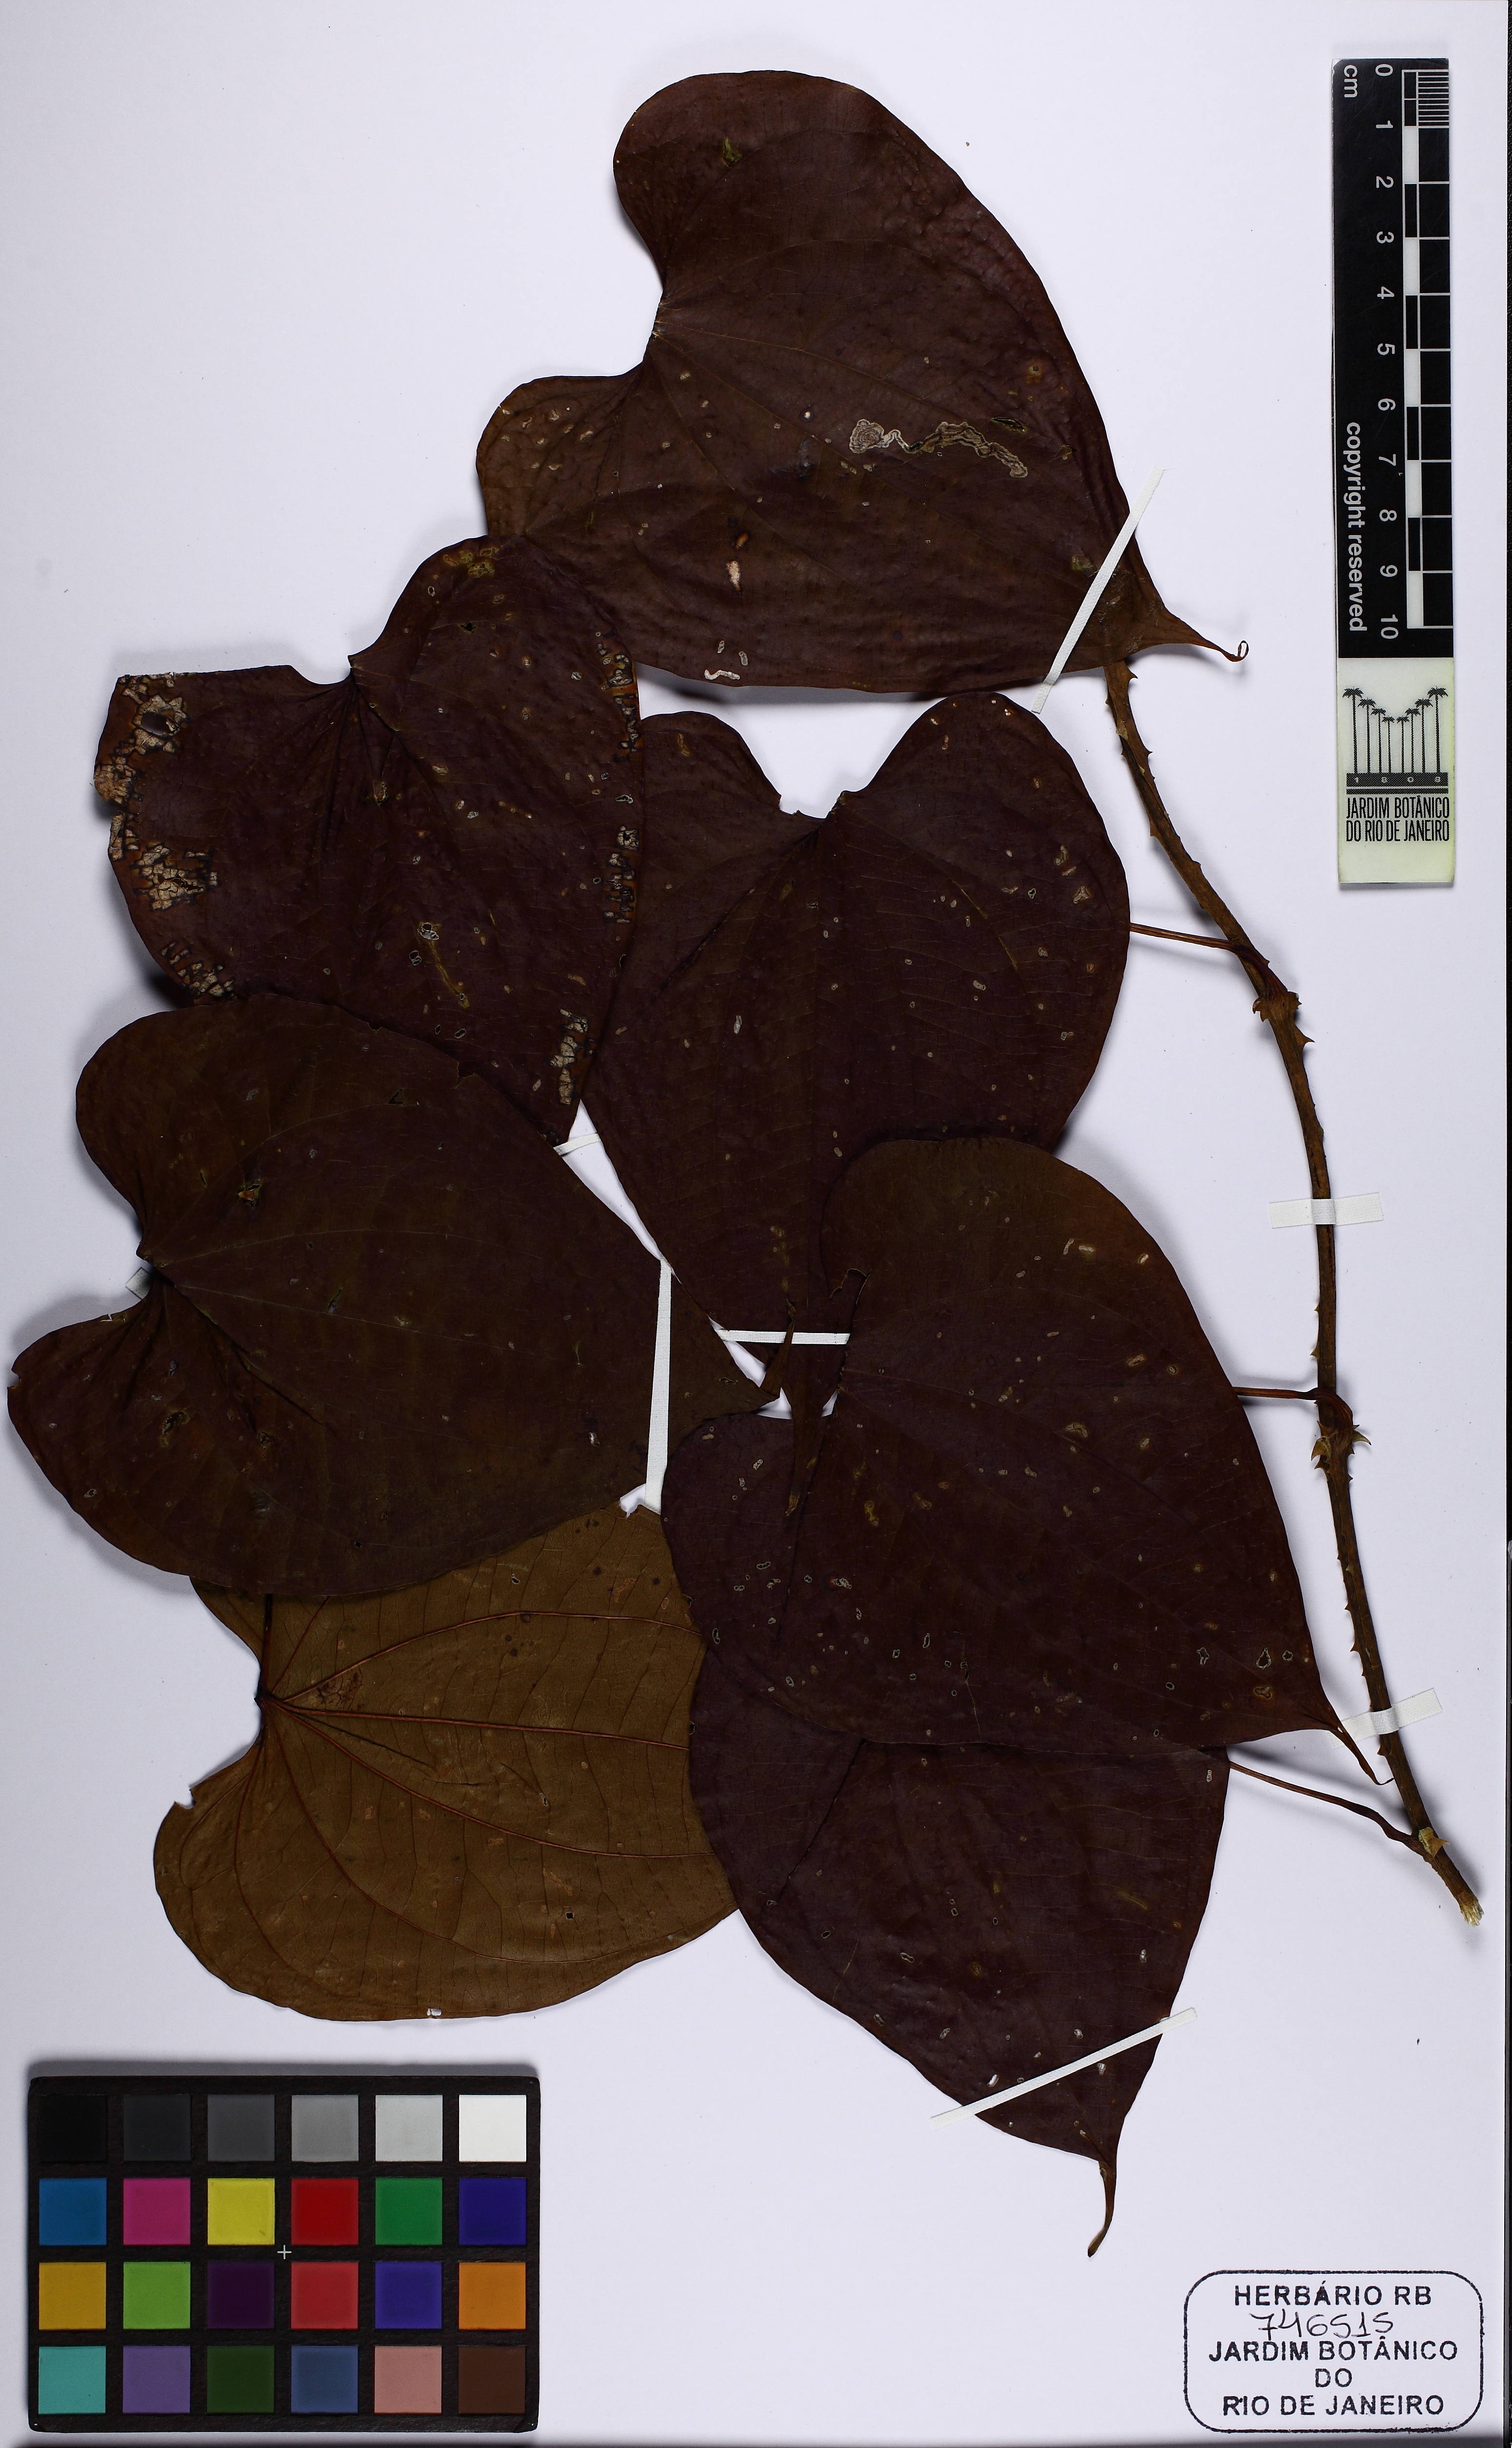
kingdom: Plantae
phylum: Tracheophyta
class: Liliopsida
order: Dioscoreales
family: Dioscoreaceae
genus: Dioscorea
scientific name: Dioscorea chondrocarpa
